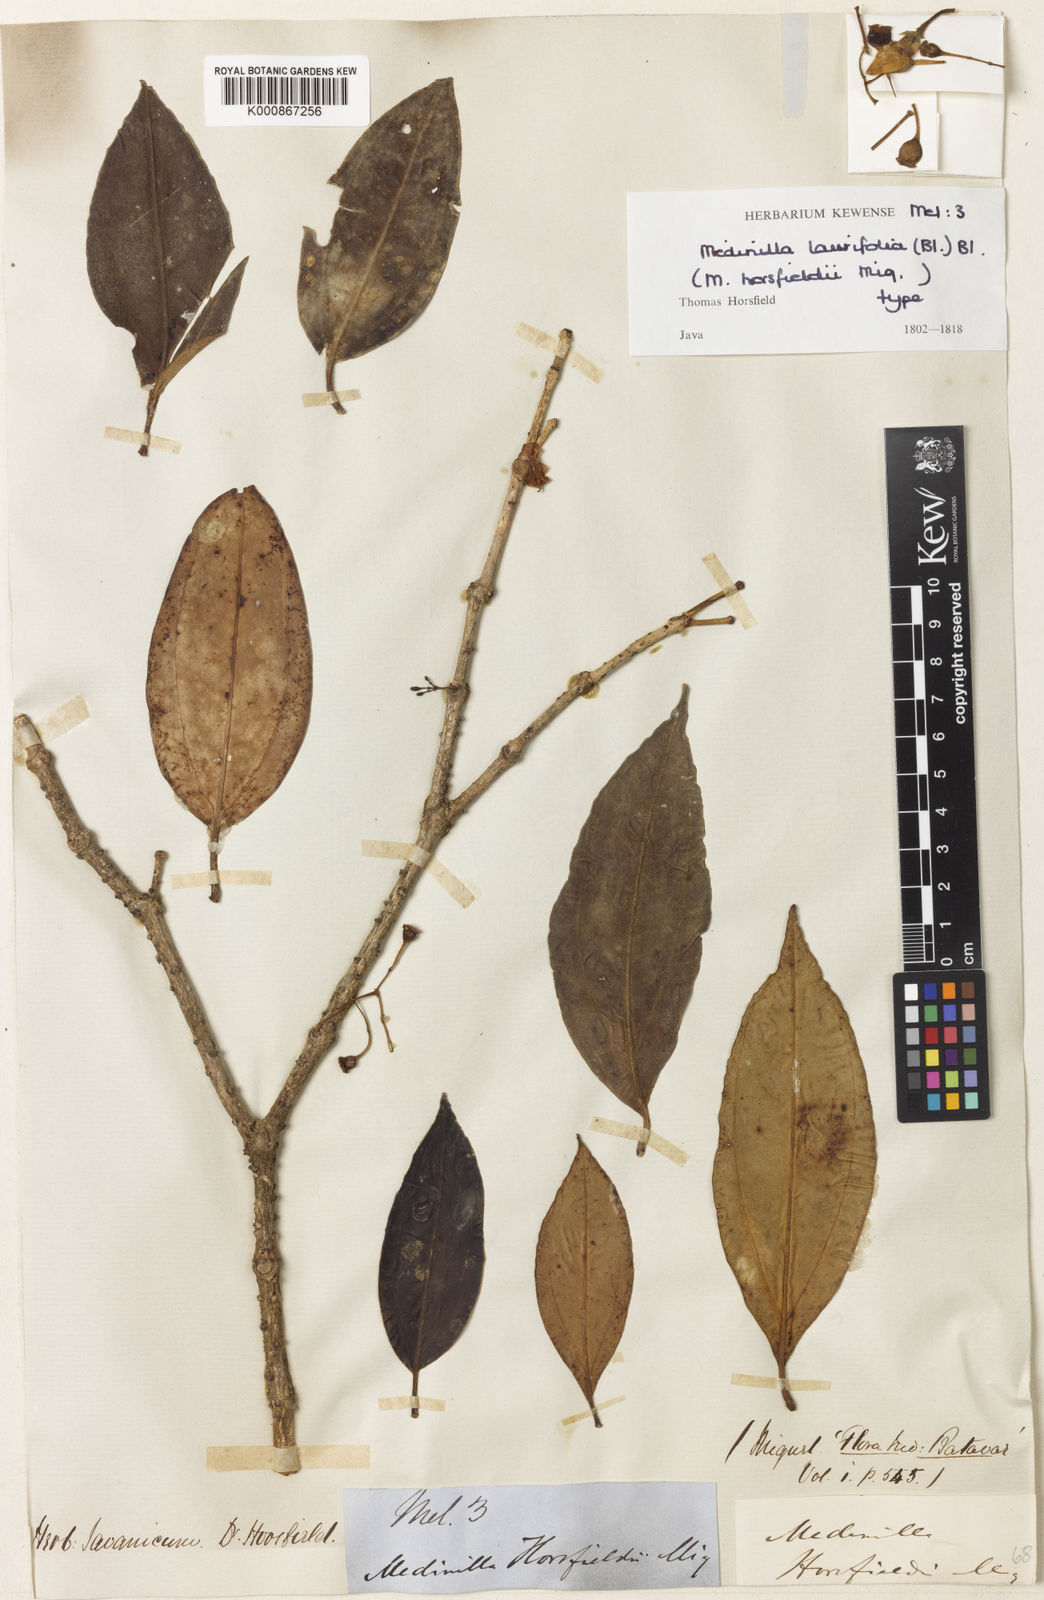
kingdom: Plantae
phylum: Tracheophyta
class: Magnoliopsida
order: Myrtales
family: Melastomataceae
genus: Medinilla
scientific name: Medinilla laurifolia
